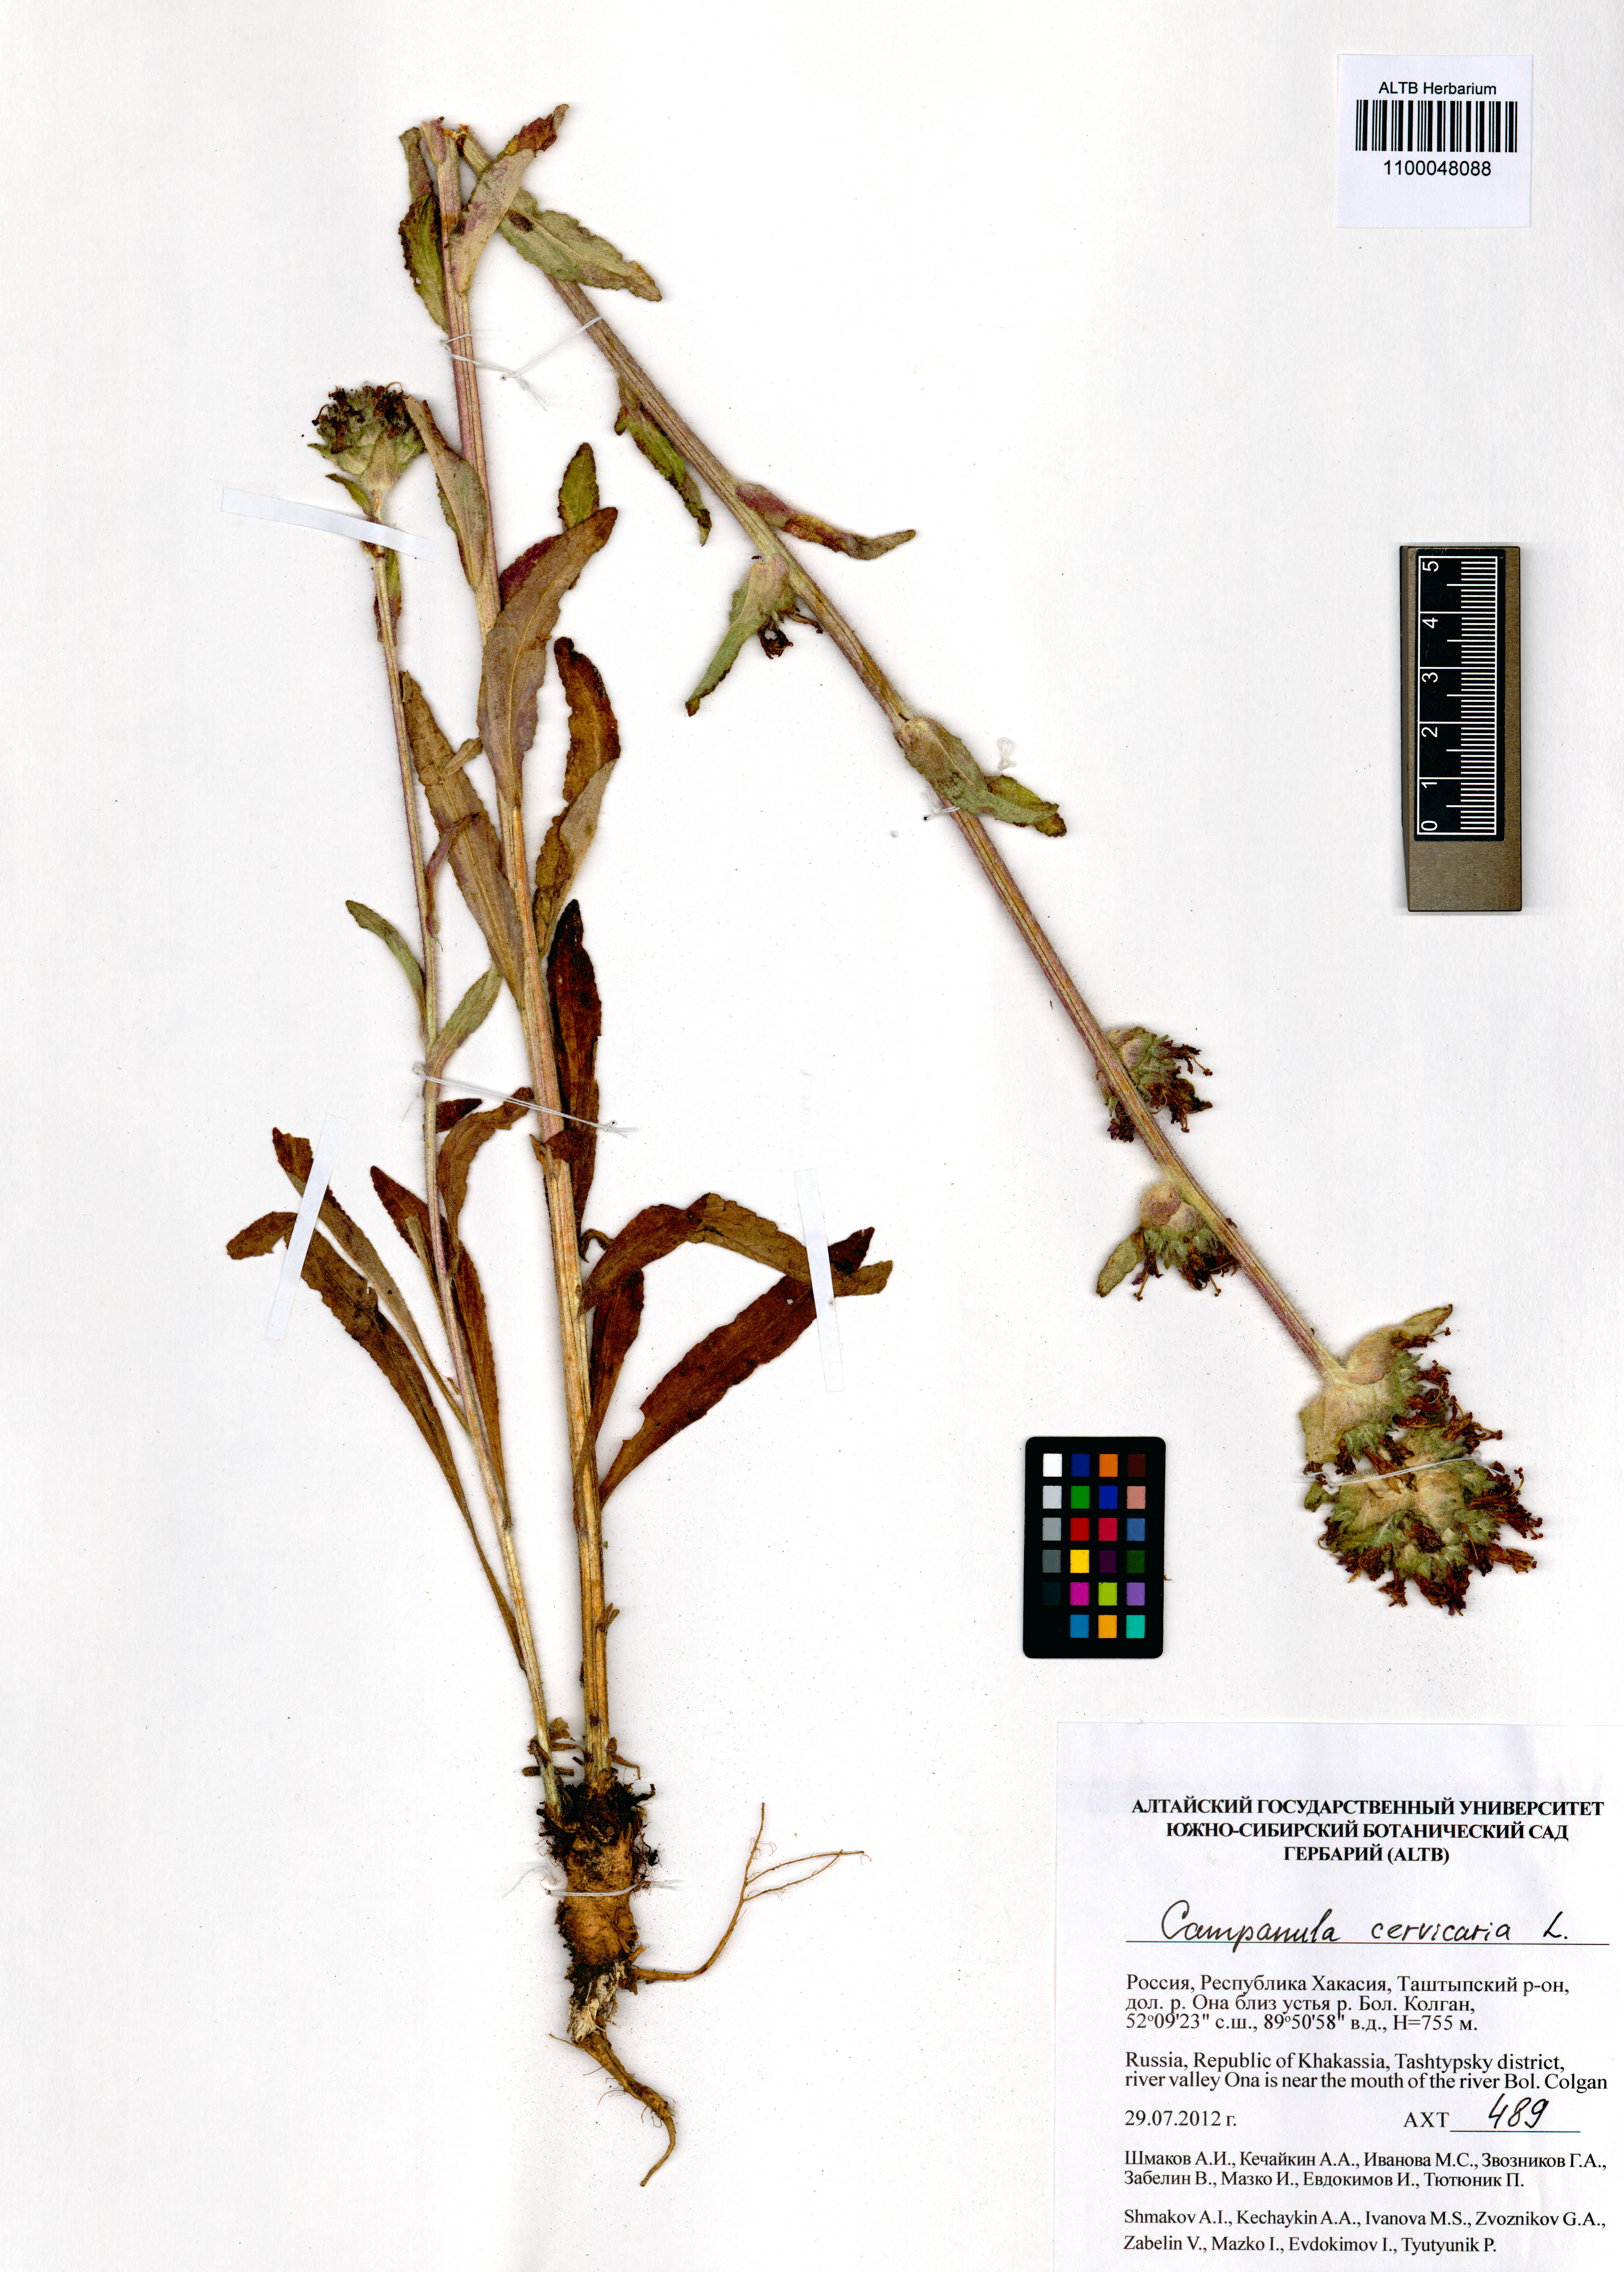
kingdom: Plantae
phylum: Tracheophyta
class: Magnoliopsida
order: Asterales
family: Campanulaceae
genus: Campanula
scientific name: Campanula cervicaria
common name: Bristly bellflower
